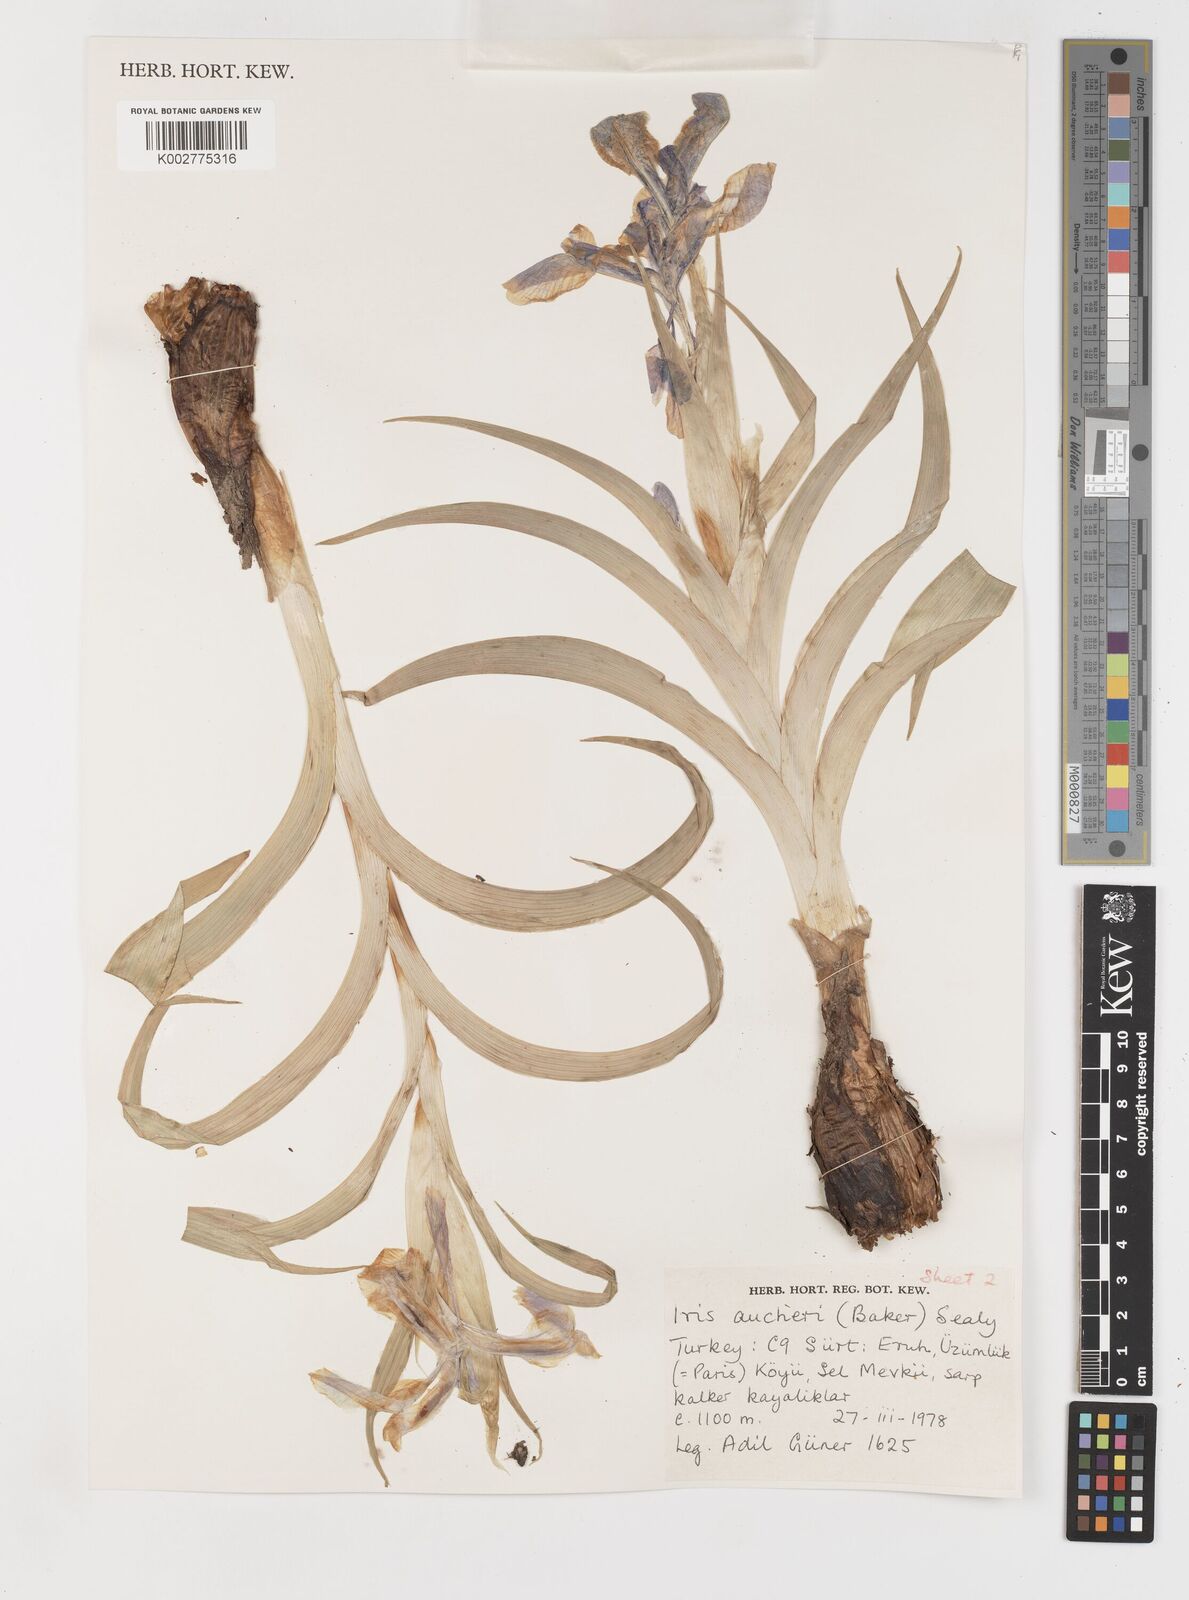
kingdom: Plantae
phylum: Tracheophyta
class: Liliopsida
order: Asparagales
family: Iridaceae
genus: Iris
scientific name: Iris aucheri
